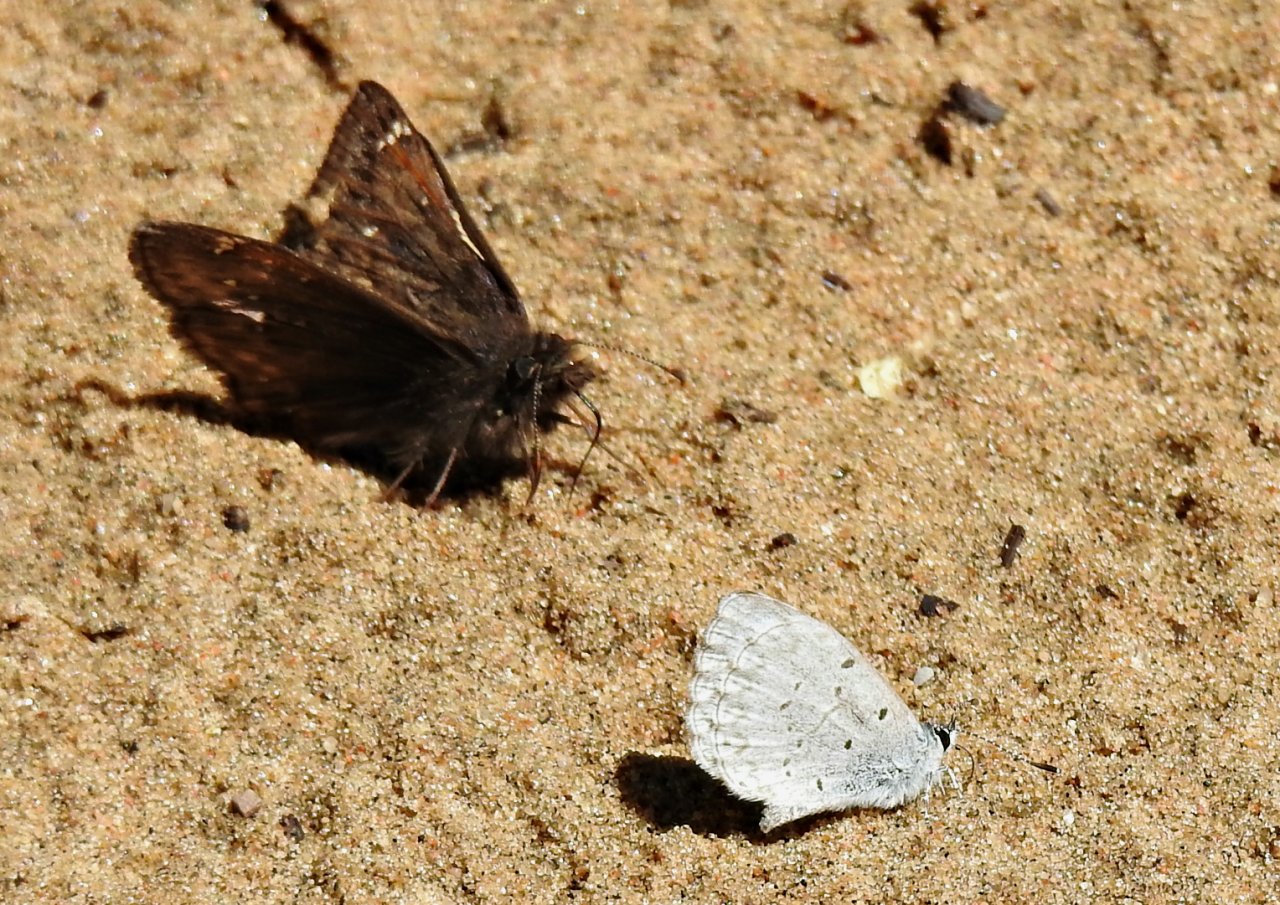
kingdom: Animalia
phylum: Arthropoda
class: Insecta
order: Lepidoptera
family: Lycaenidae
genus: Celastrina
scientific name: Celastrina
